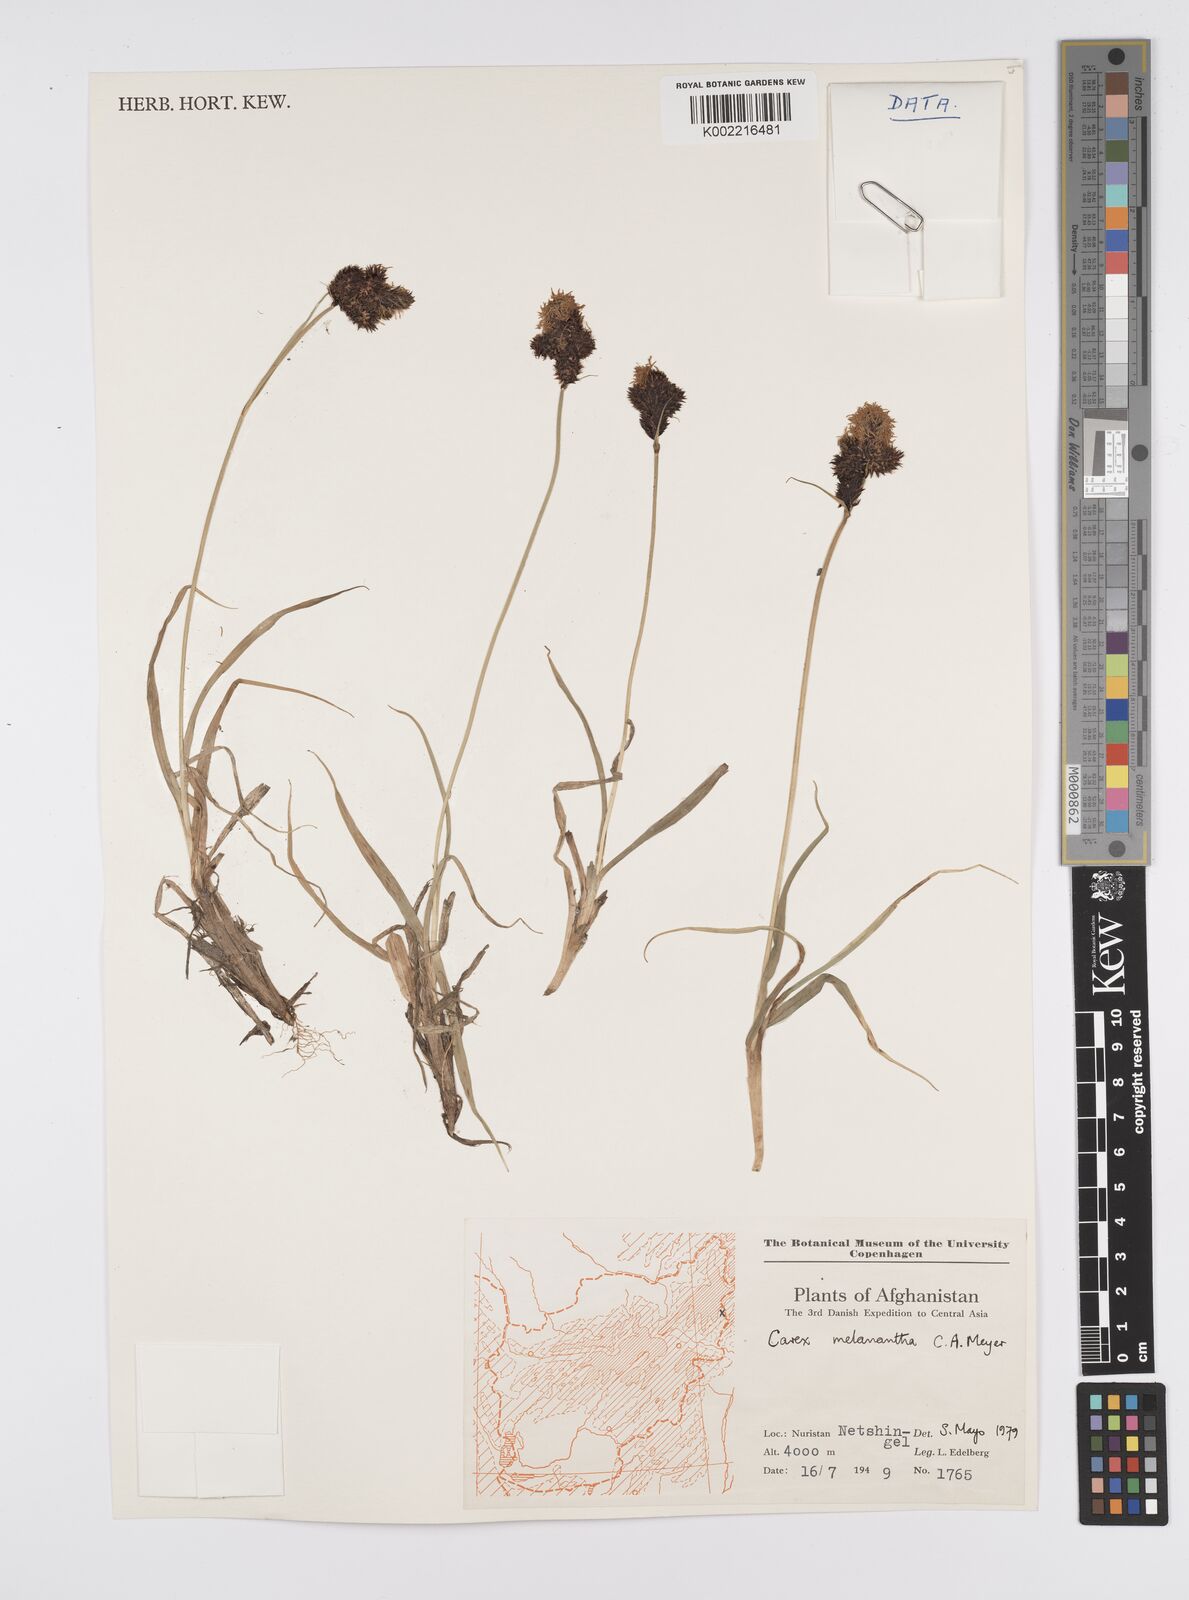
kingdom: Plantae
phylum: Tracheophyta
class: Liliopsida
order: Poales
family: Cyperaceae
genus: Carex
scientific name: Carex melanantha
